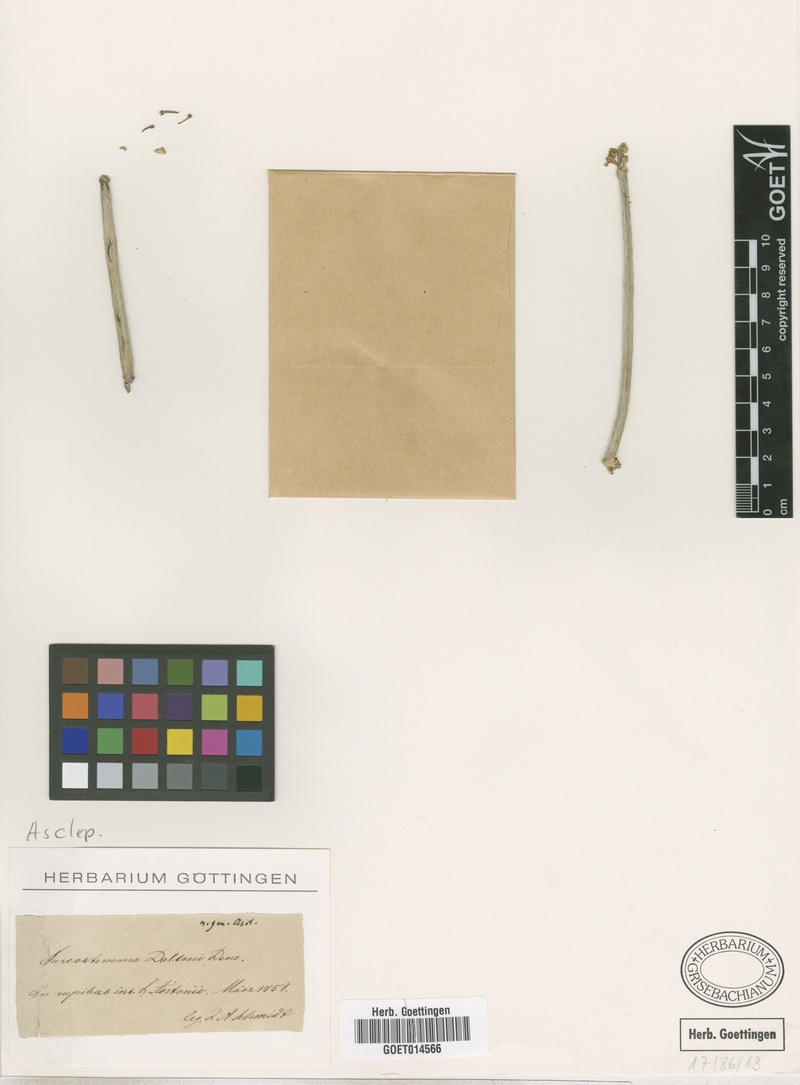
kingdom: Plantae
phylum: Tracheophyta
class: Magnoliopsida
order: Gentianales
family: Apocynaceae
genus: Cynanchum
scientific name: Cynanchum daltonii
